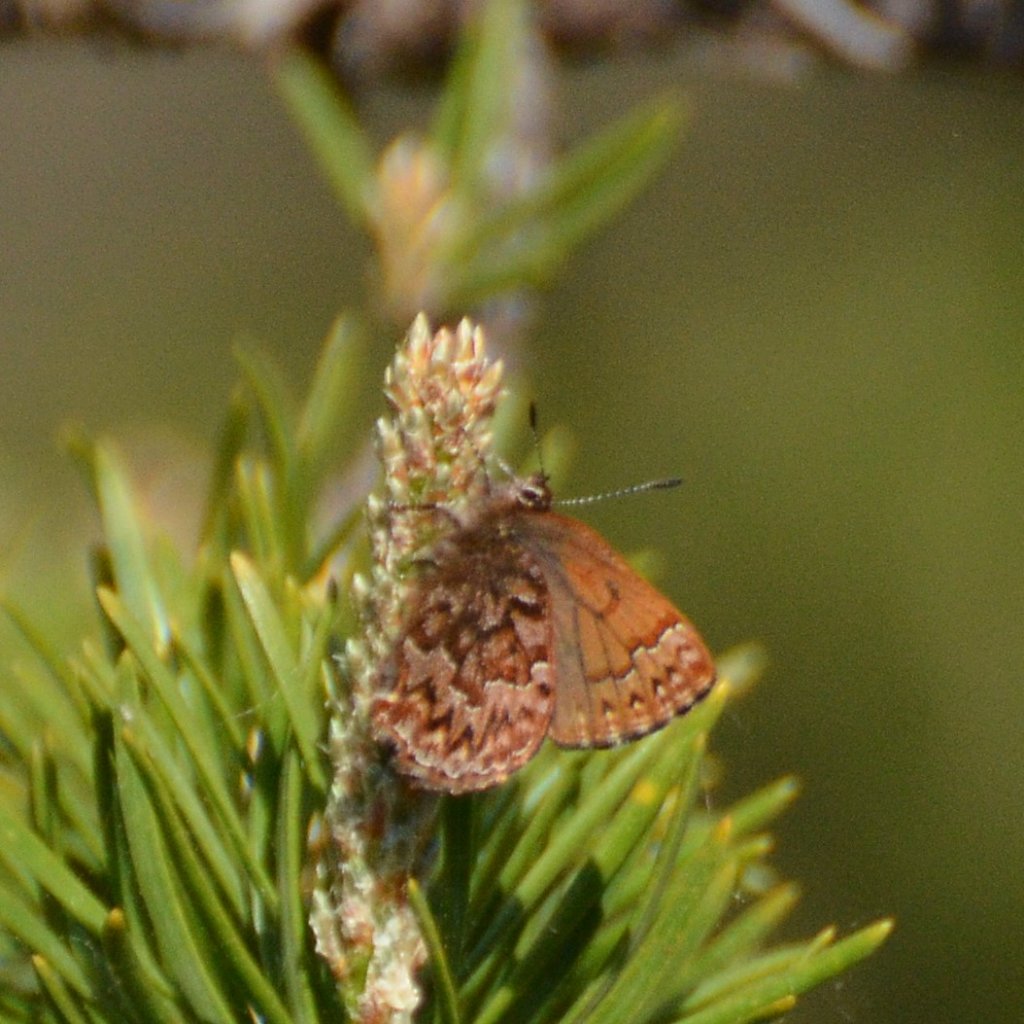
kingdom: Animalia
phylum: Arthropoda
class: Insecta
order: Lepidoptera
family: Lycaenidae
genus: Incisalia
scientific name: Incisalia eryphon
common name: Western Pine Elfin
